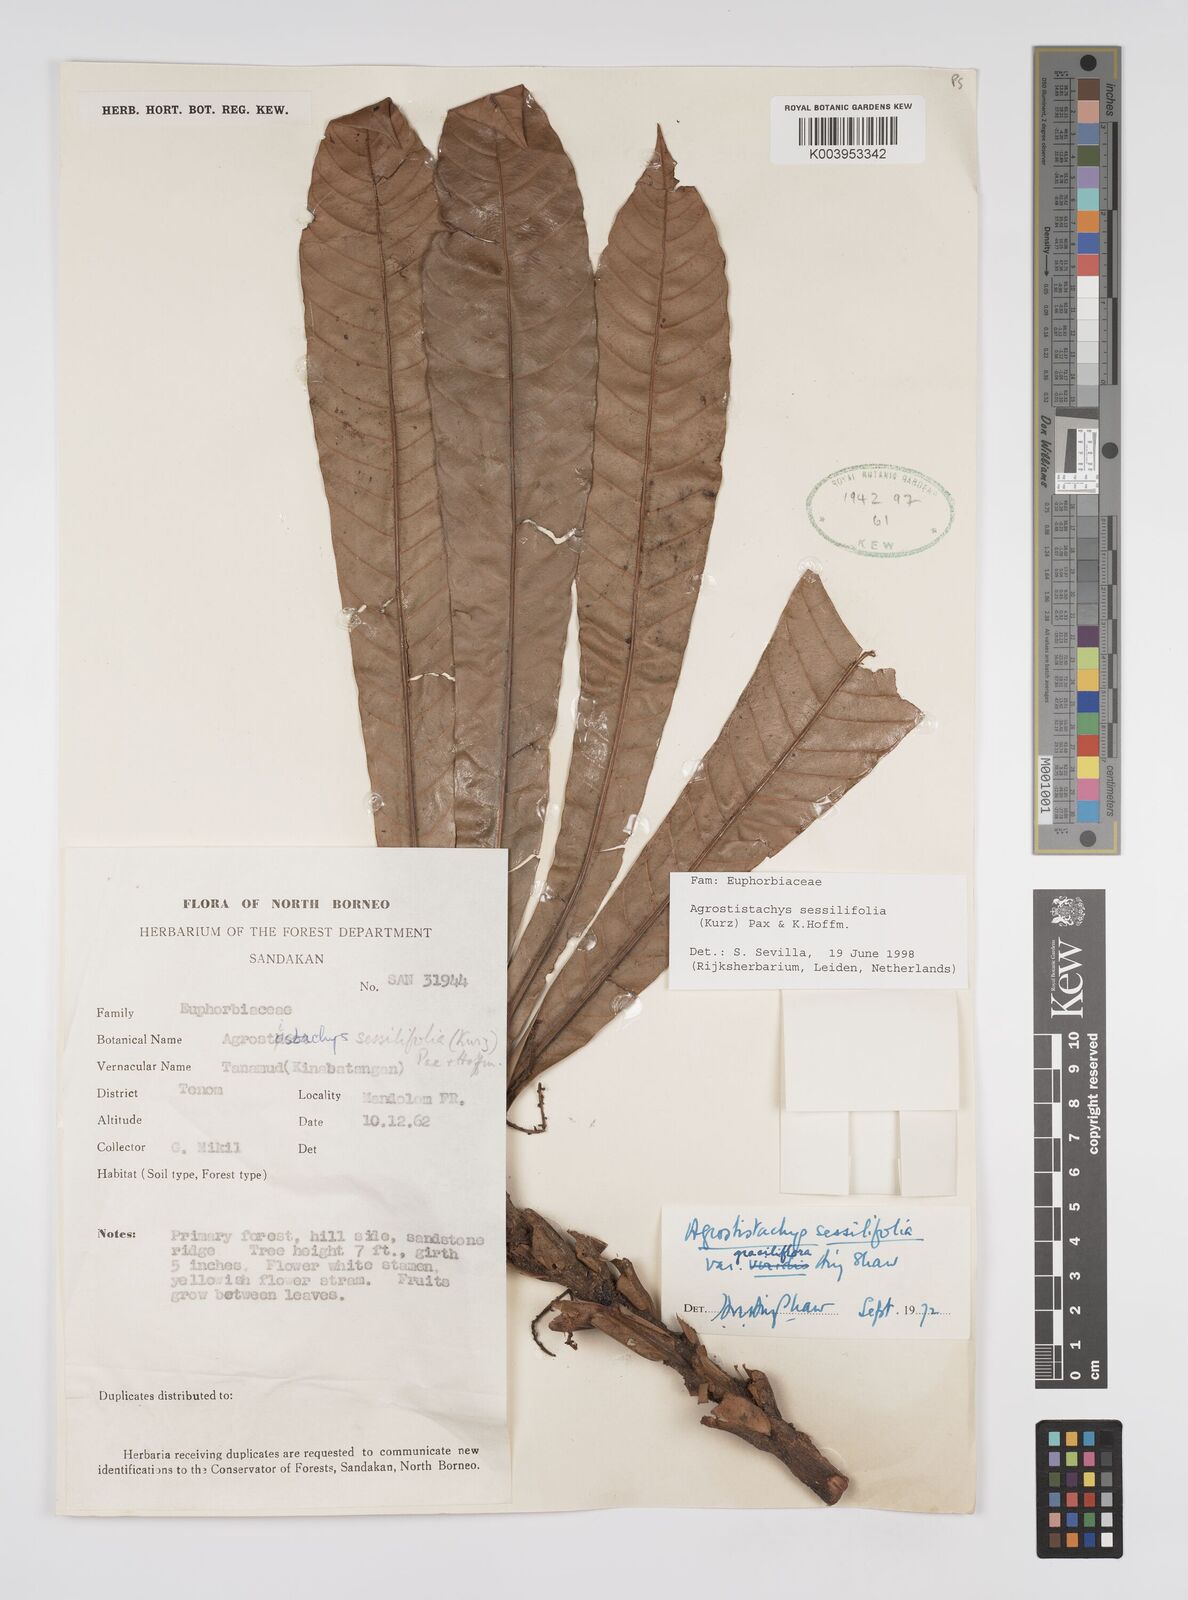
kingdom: Plantae
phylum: Tracheophyta
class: Magnoliopsida
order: Malpighiales
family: Euphorbiaceae
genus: Agrostistachys
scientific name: Agrostistachys sessilifolia
